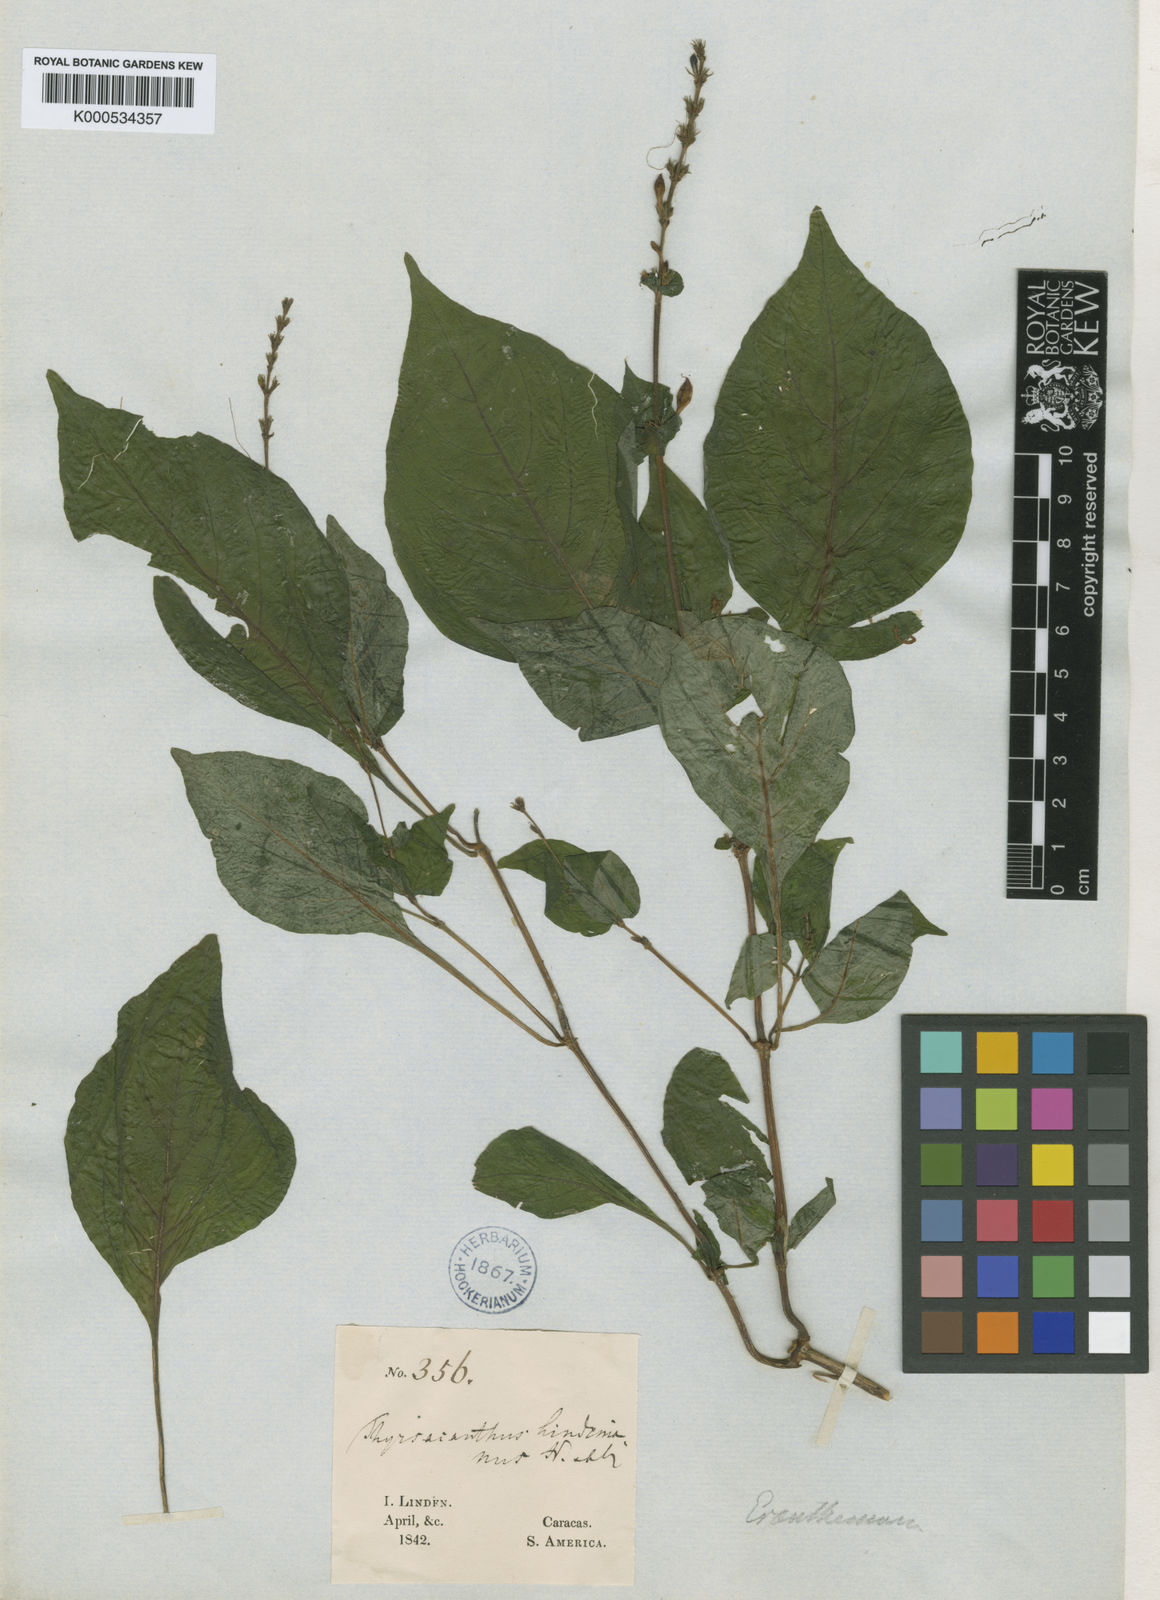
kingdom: Plantae
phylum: Tracheophyta
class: Magnoliopsida
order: Lamiales
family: Acanthaceae
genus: Pseuderanthemum
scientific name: Pseuderanthemum
